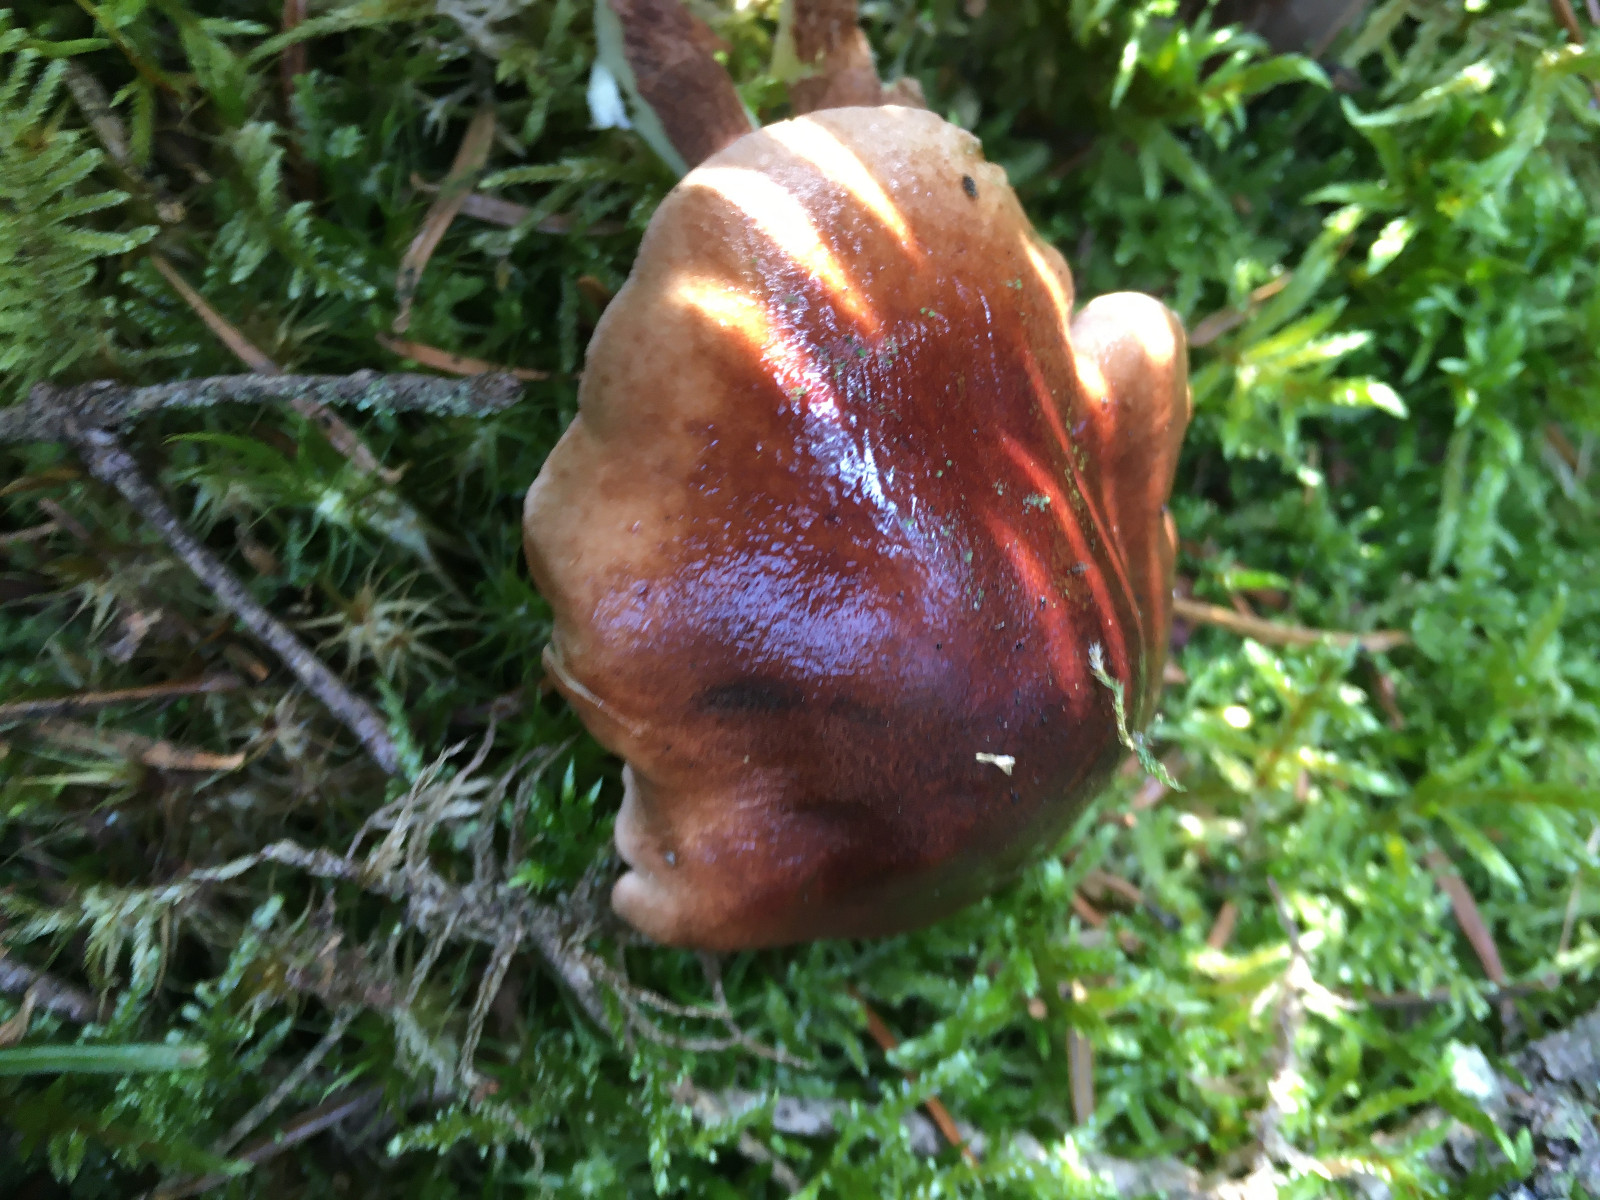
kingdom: Fungi
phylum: Basidiomycota
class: Agaricomycetes
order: Agaricales
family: Tricholomataceae
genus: Tricholoma
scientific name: Tricholoma fulvum
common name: birke-ridderhat
